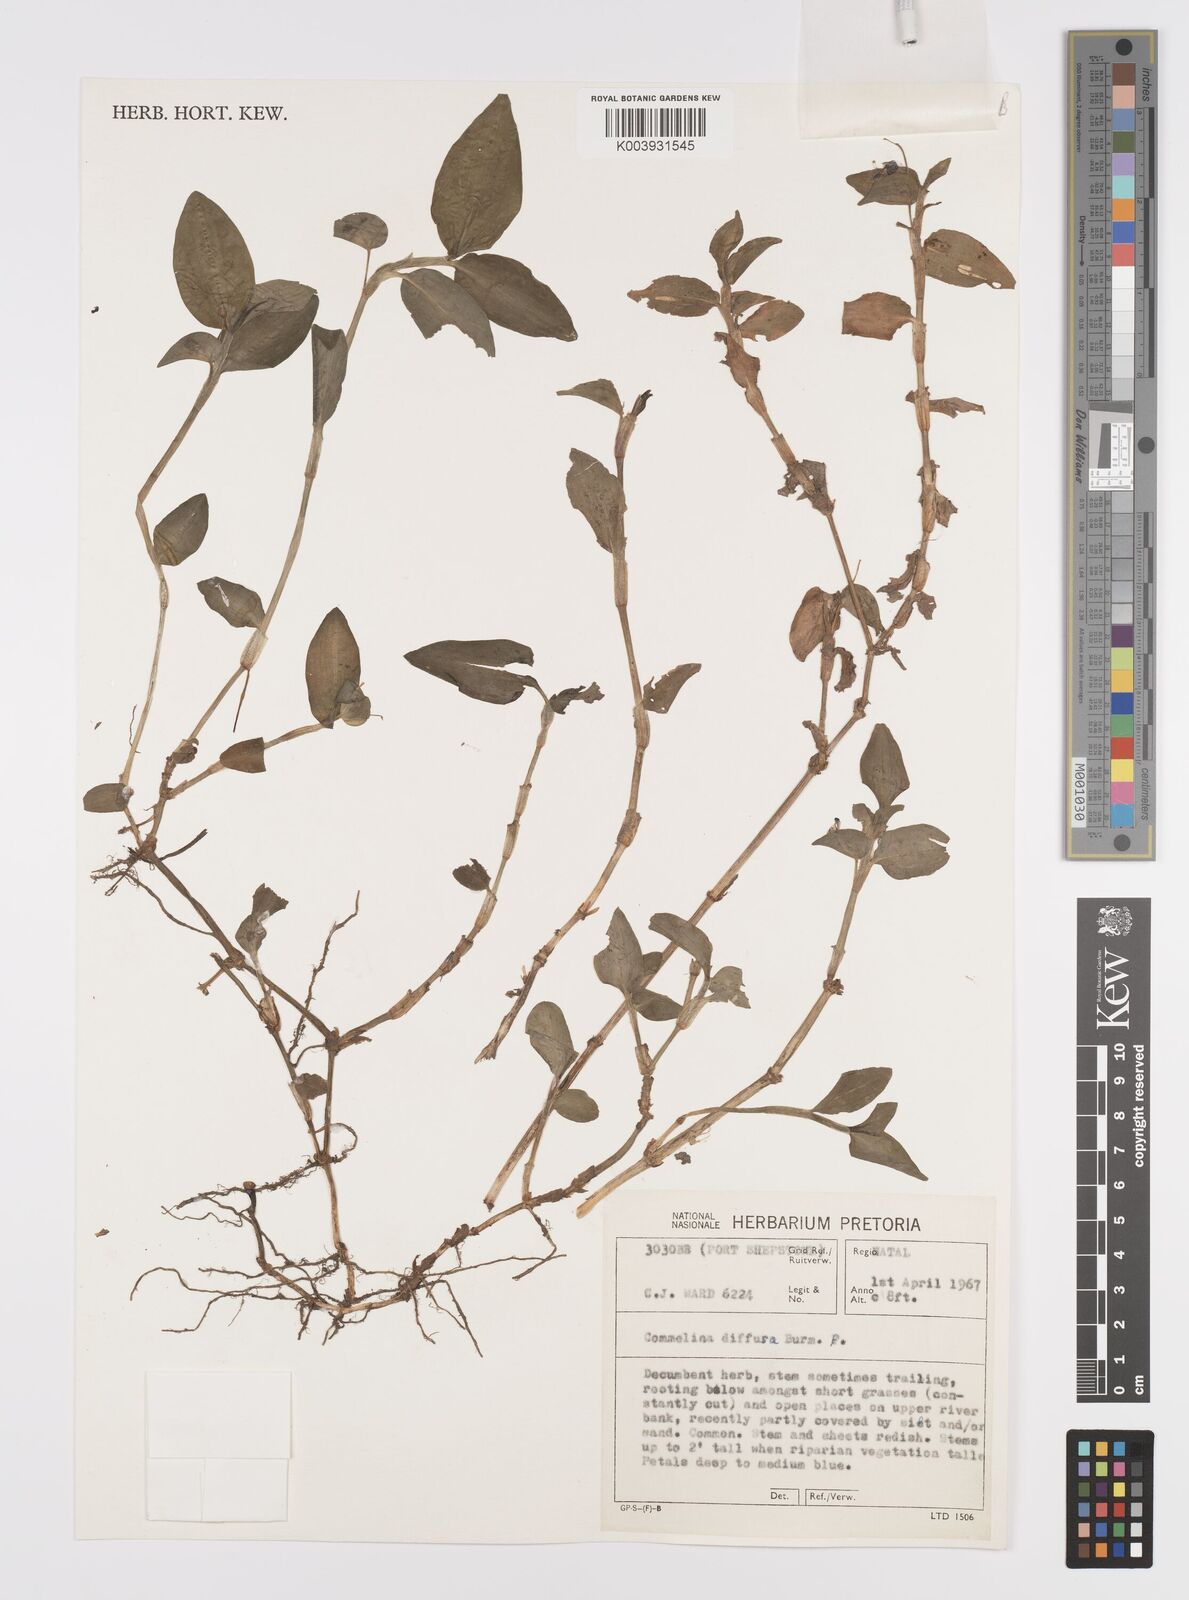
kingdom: Plantae
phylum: Tracheophyta
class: Liliopsida
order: Commelinales
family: Commelinaceae
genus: Commelina
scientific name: Commelina diffusa
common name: Climbing dayflower
